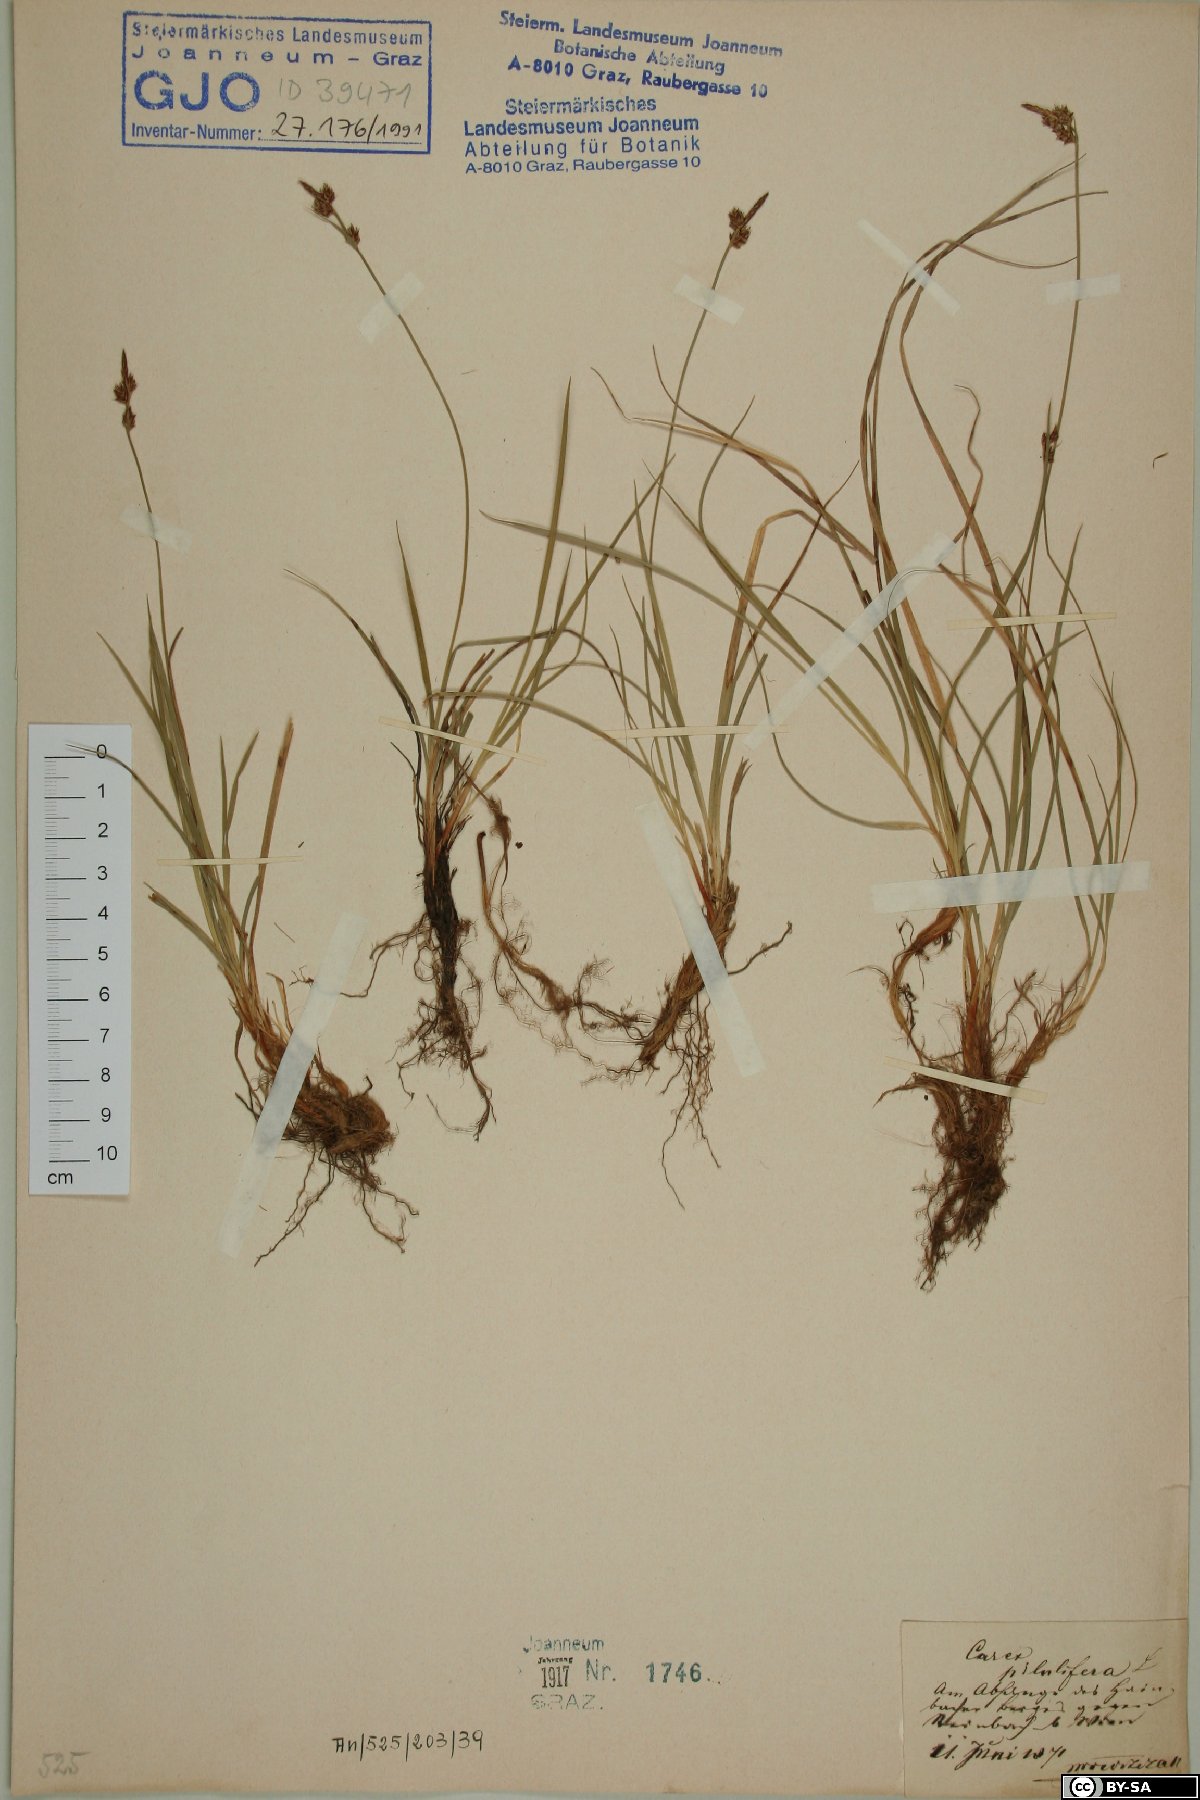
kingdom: Plantae
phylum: Tracheophyta
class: Liliopsida
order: Poales
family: Cyperaceae
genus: Carex
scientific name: Carex pilulifera
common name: Pill sedge
